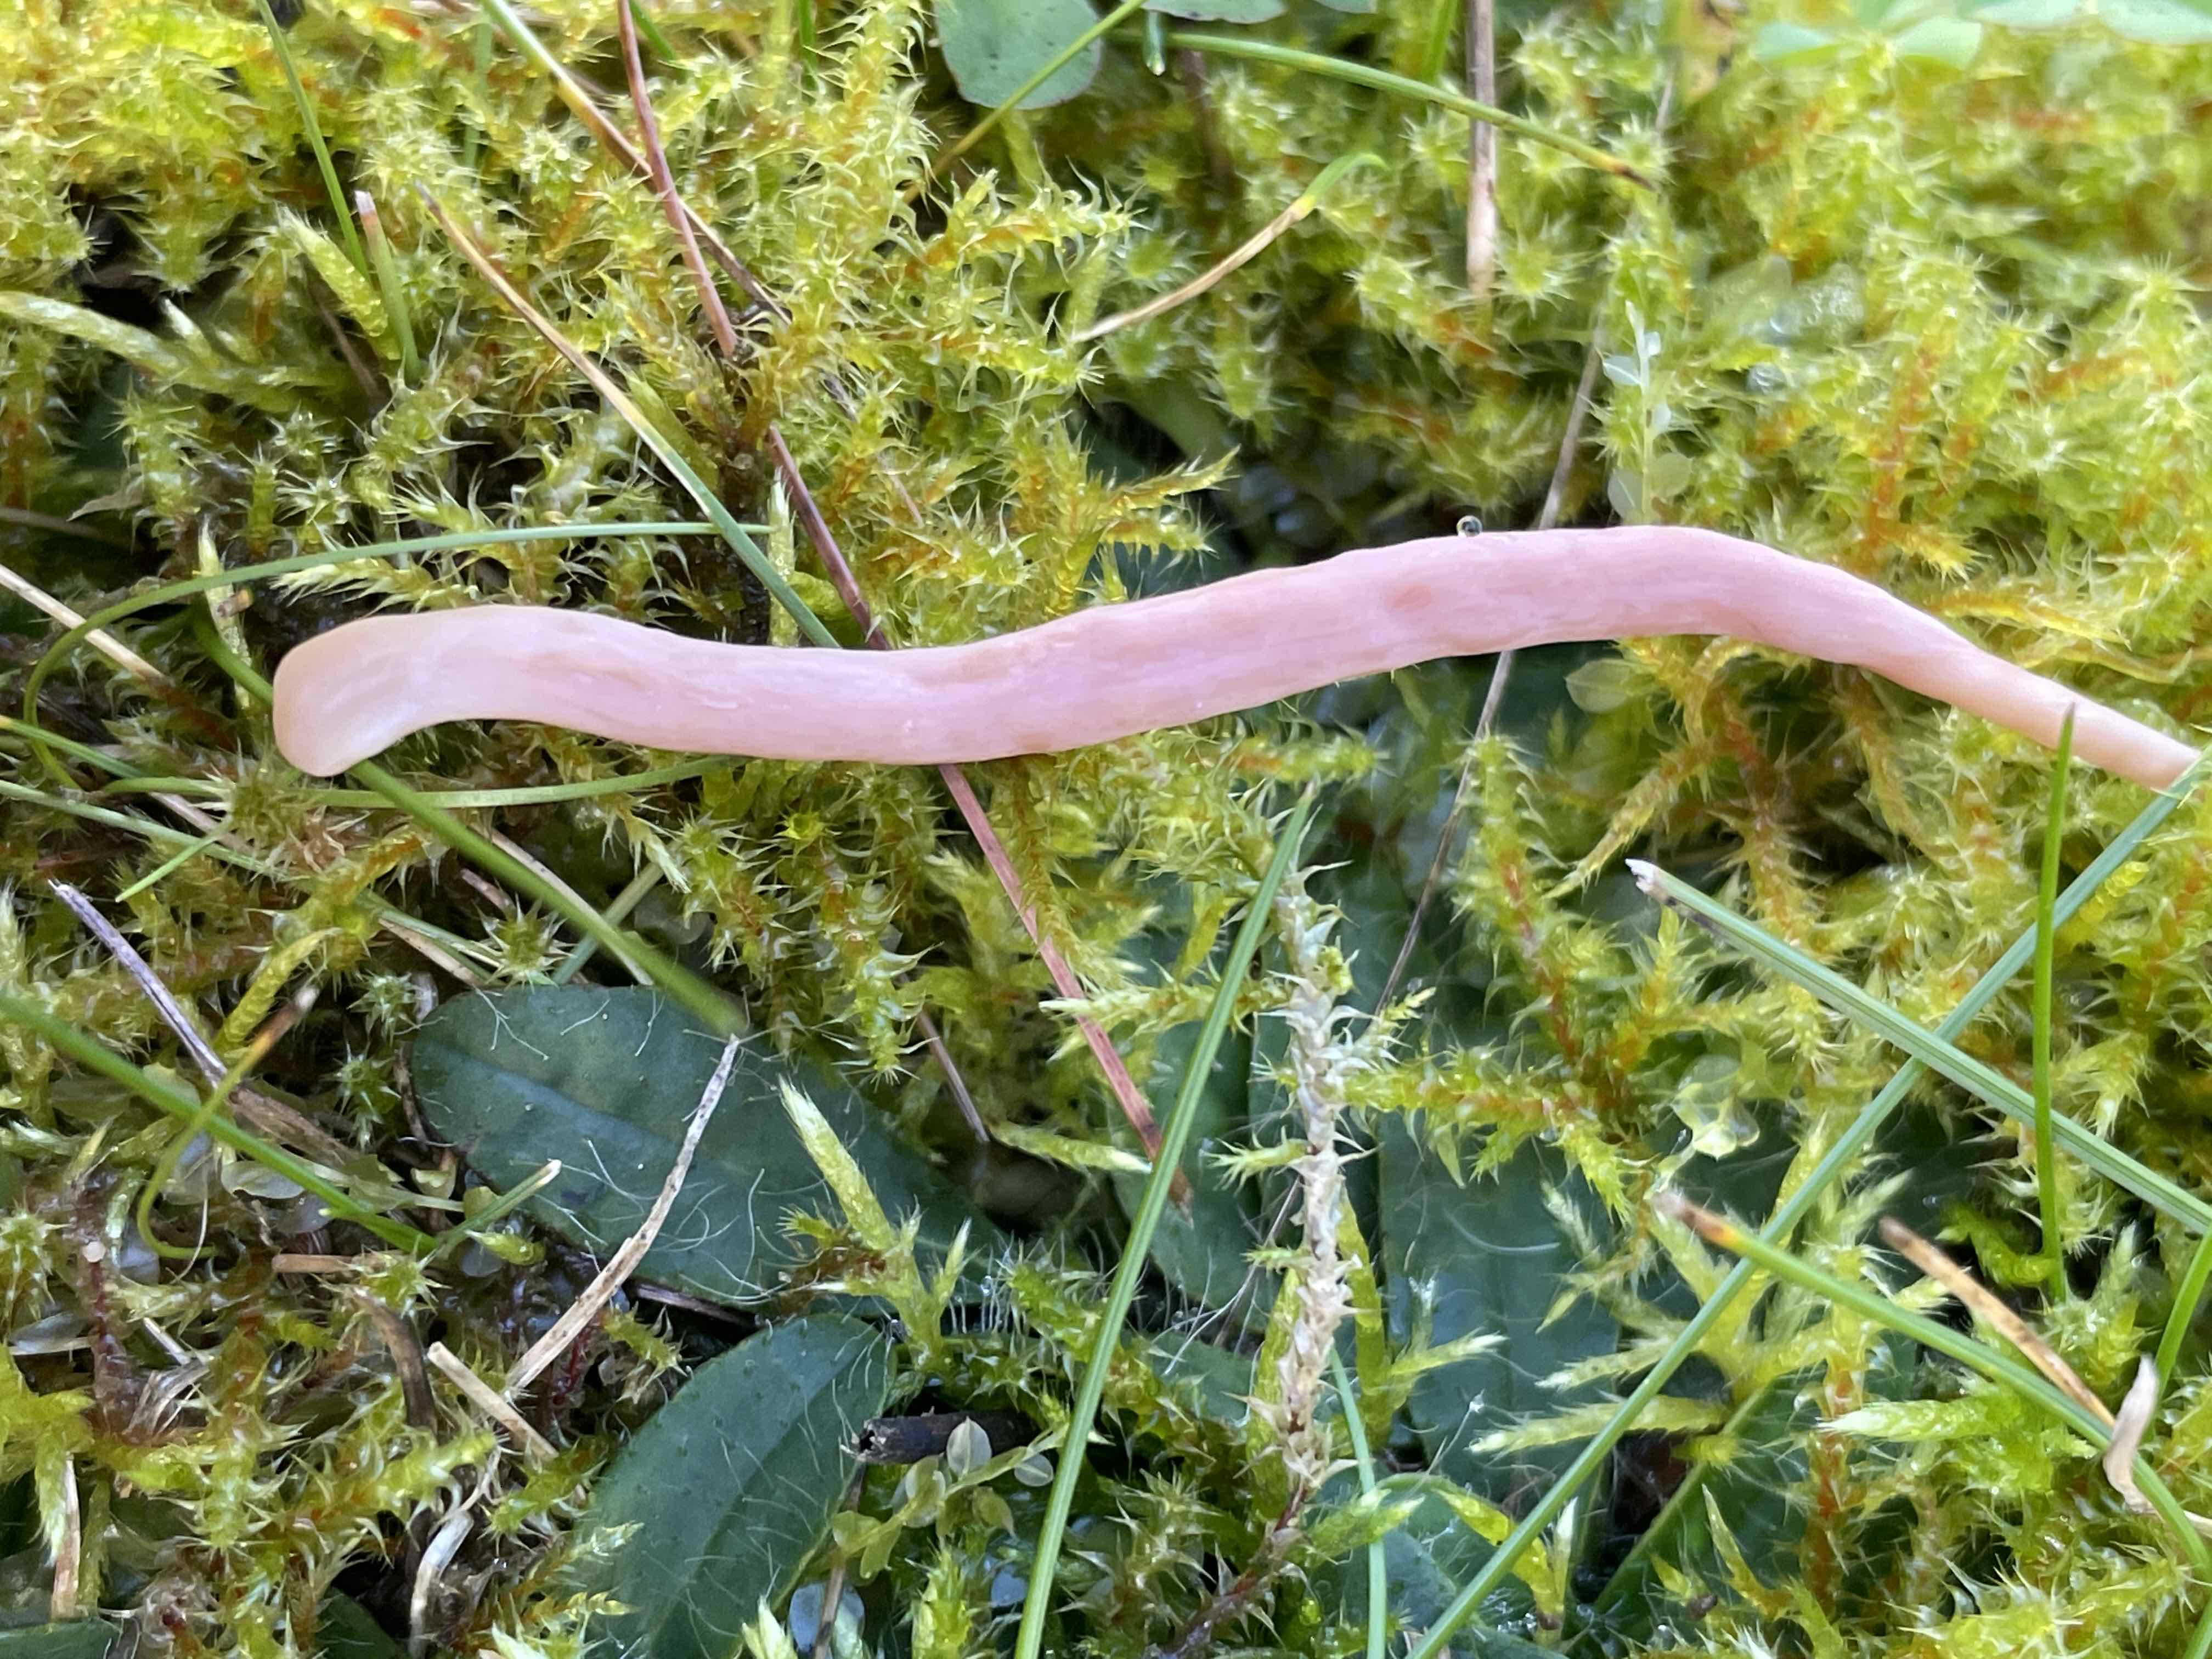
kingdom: Fungi
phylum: Basidiomycota
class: Agaricomycetes
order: Agaricales
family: Clavariaceae
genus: Clavaria
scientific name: Clavaria
